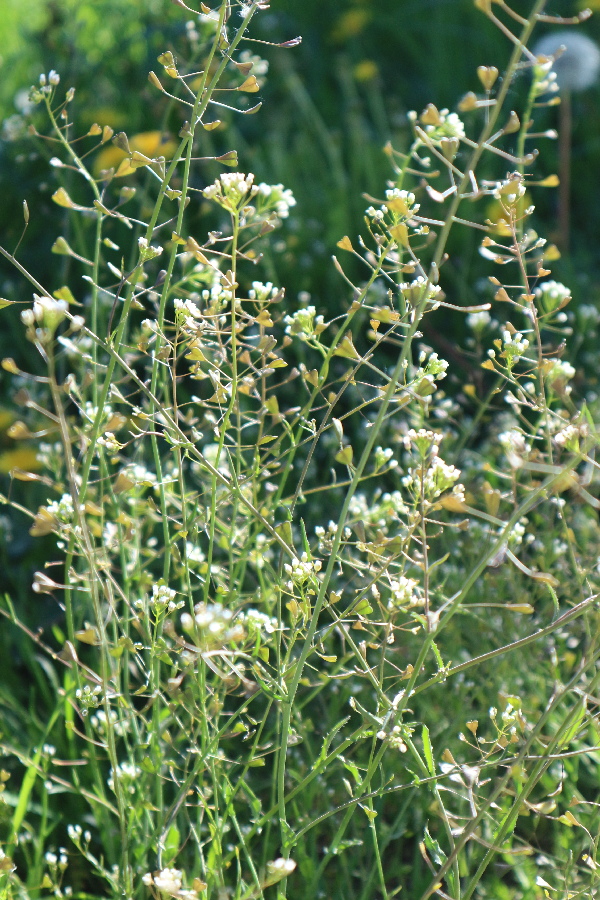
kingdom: Plantae
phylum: Tracheophyta
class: Magnoliopsida
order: Brassicales
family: Brassicaceae
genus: Capsella
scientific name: Capsella bursa-pastoris
